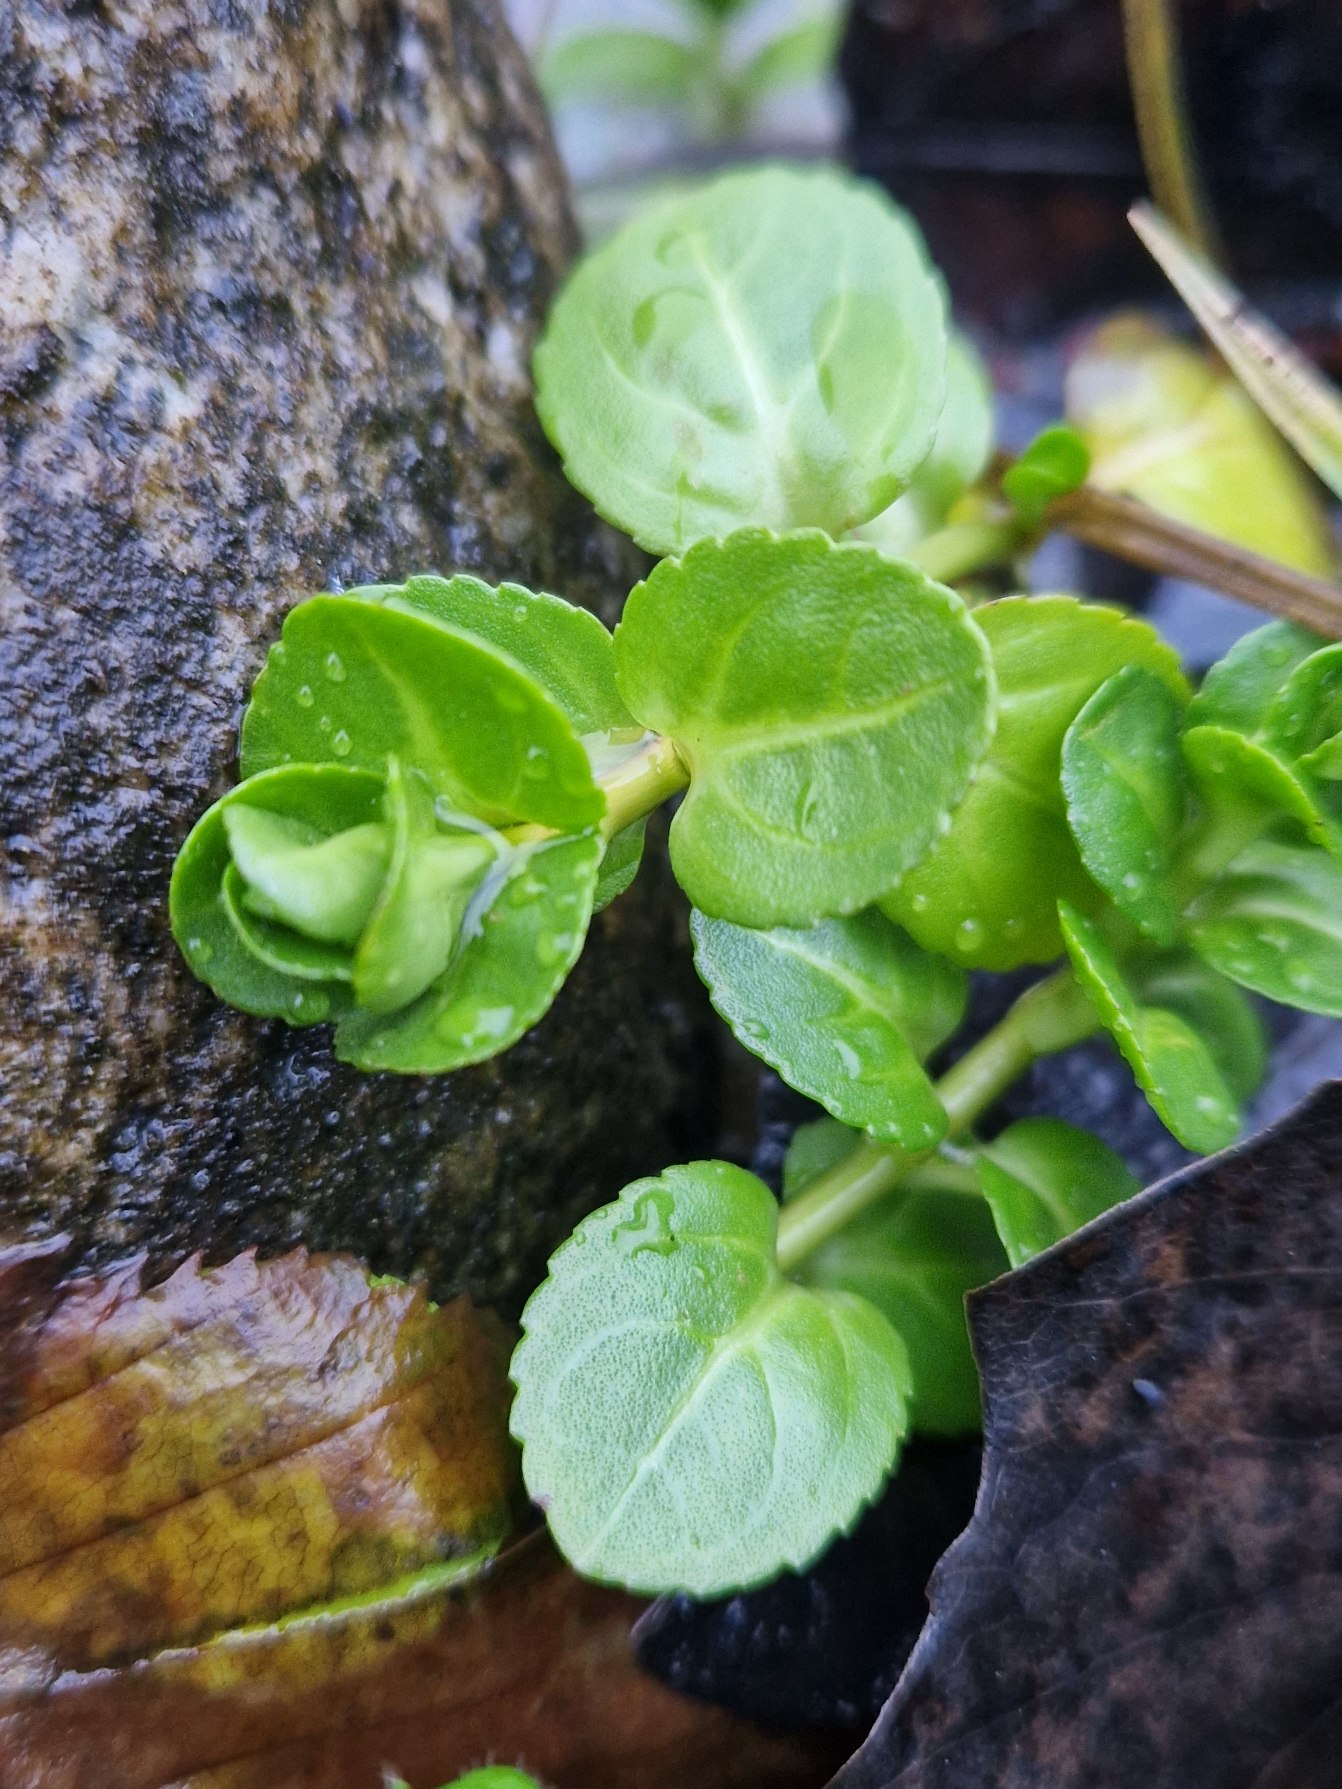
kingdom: Plantae
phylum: Tracheophyta
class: Magnoliopsida
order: Lamiales
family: Plantaginaceae
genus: Veronica
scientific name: Veronica beccabunga
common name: Tykbladet ærenpris
